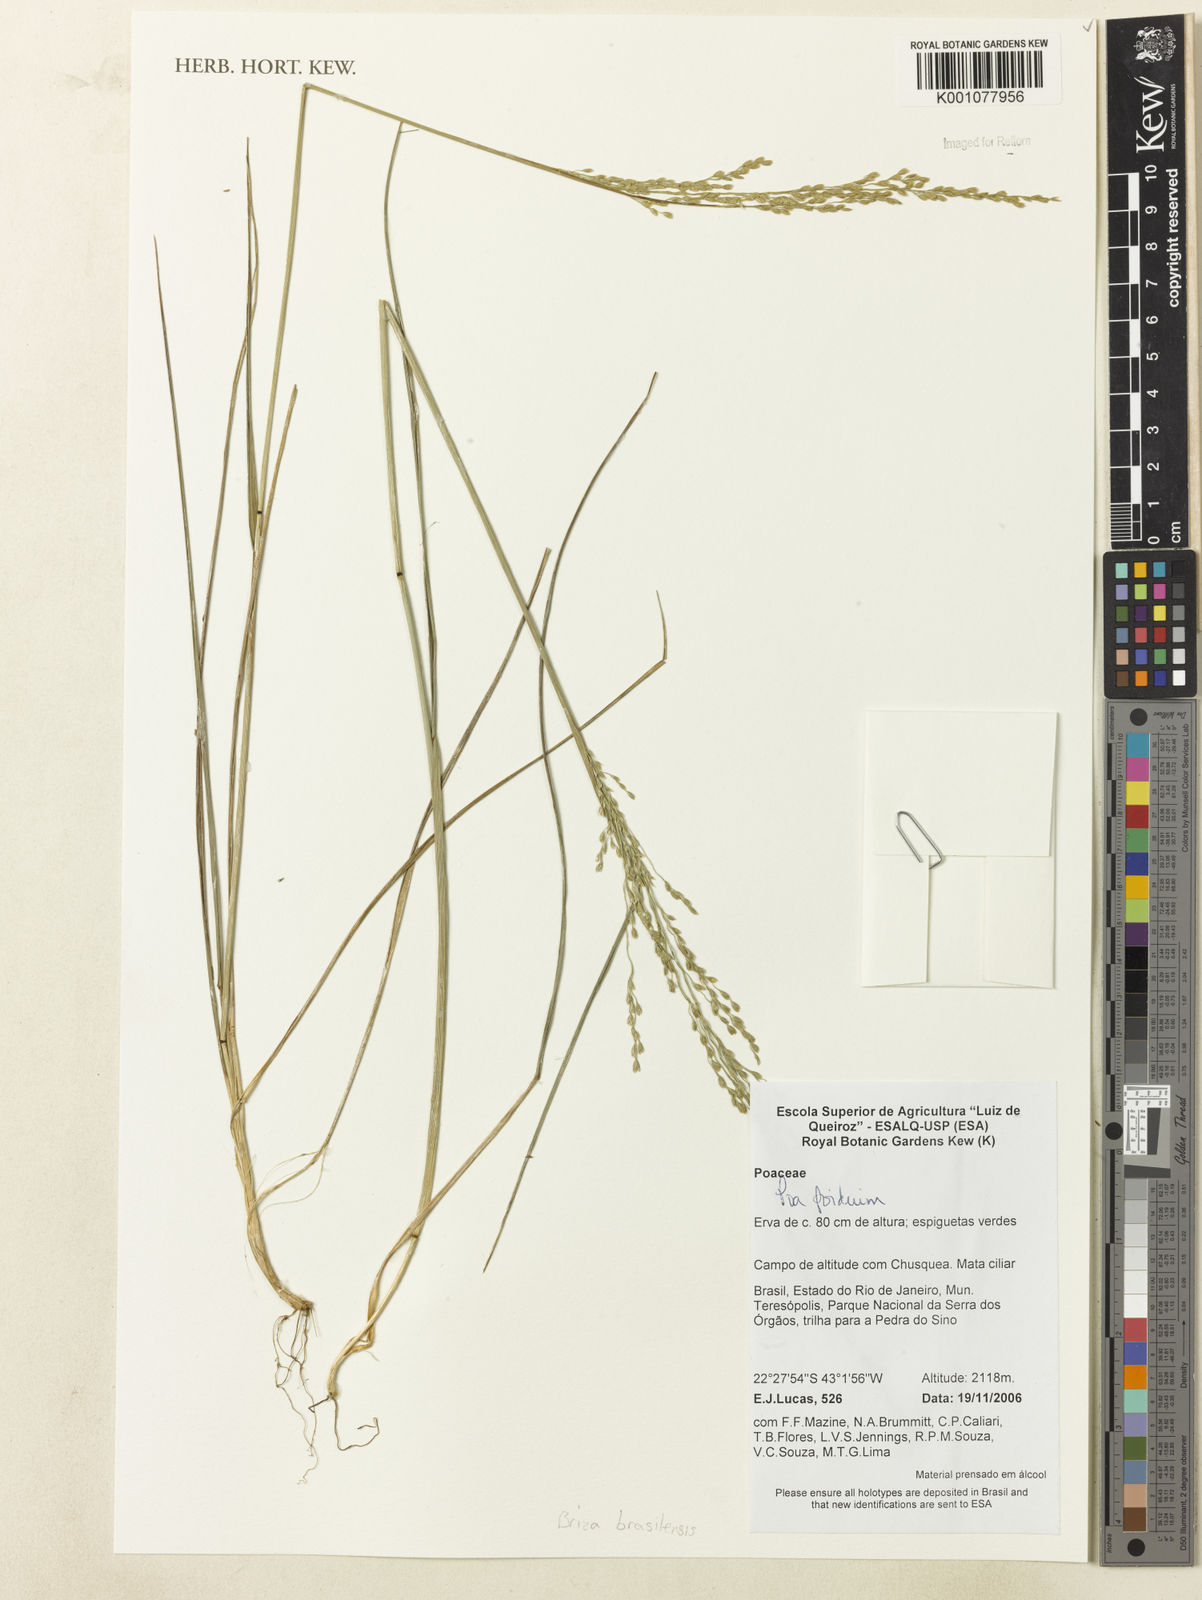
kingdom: Plantae
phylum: Tracheophyta
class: Liliopsida
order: Poales
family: Poaceae
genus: Poidium
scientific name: Poidium brasiliense
